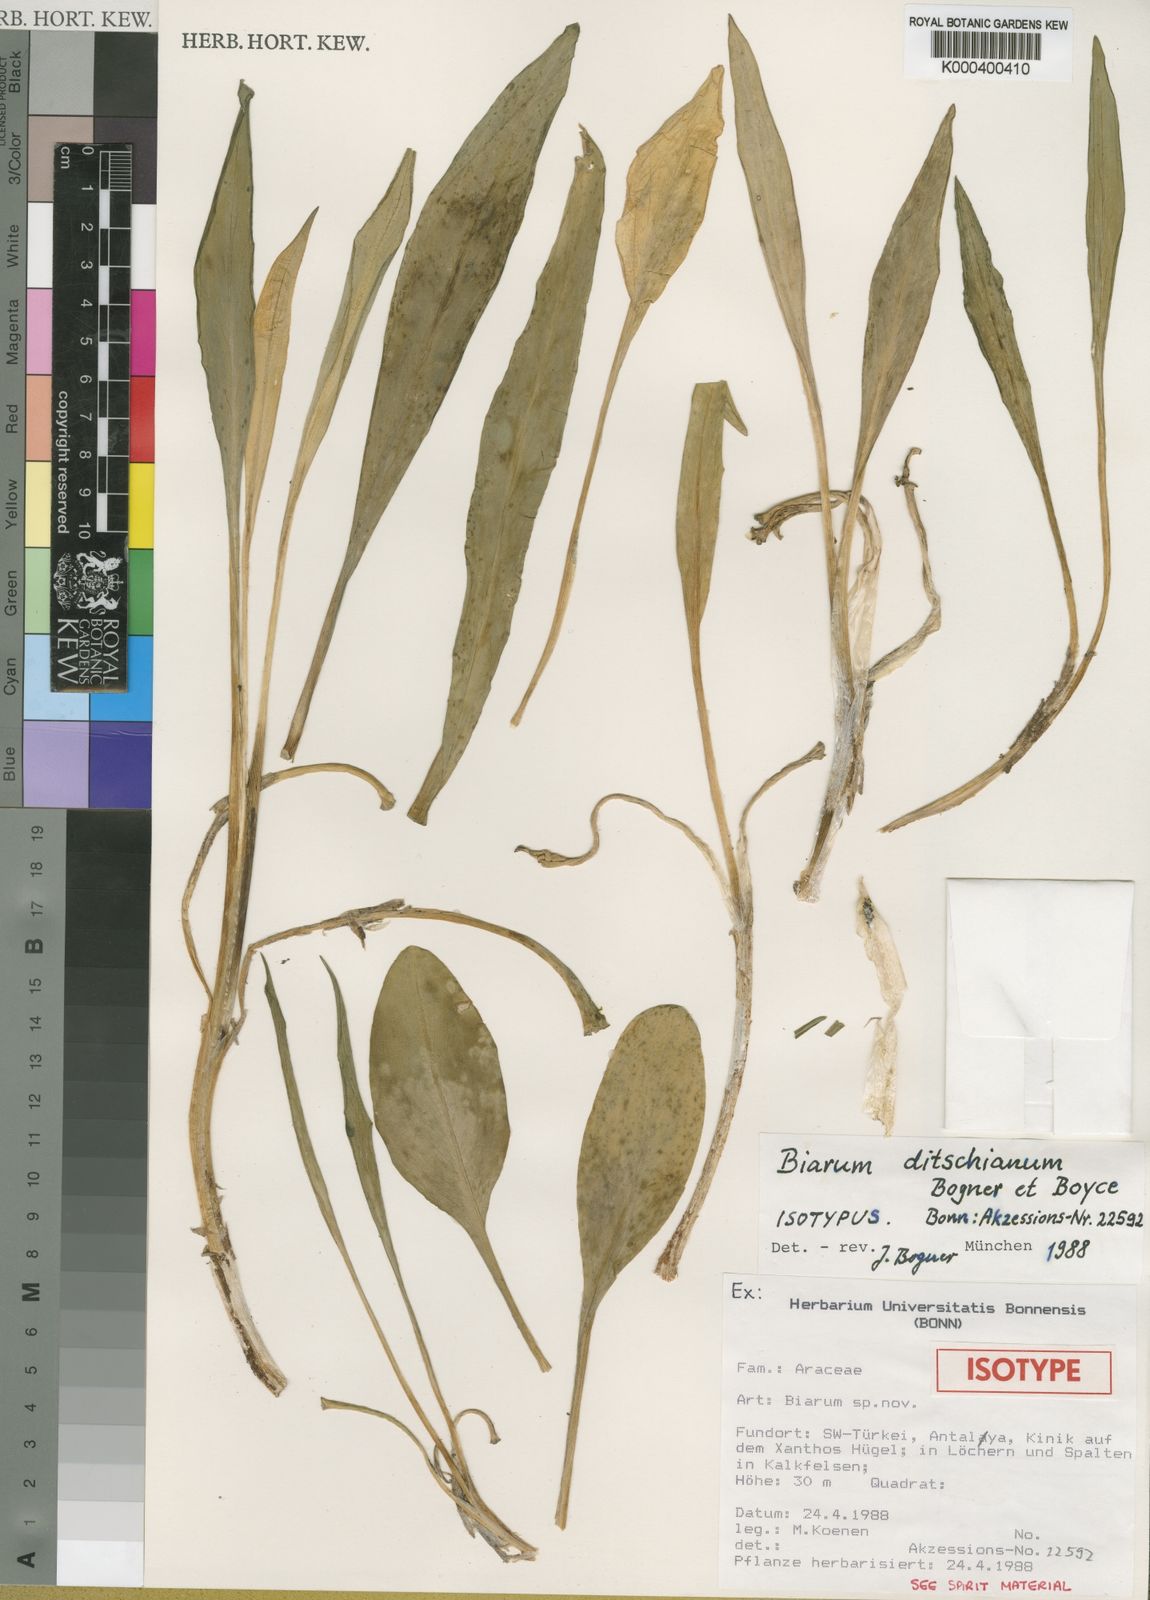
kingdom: Plantae
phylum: Tracheophyta
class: Liliopsida
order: Alismatales
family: Araceae
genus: Biarum
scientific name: Biarum ditschianum
